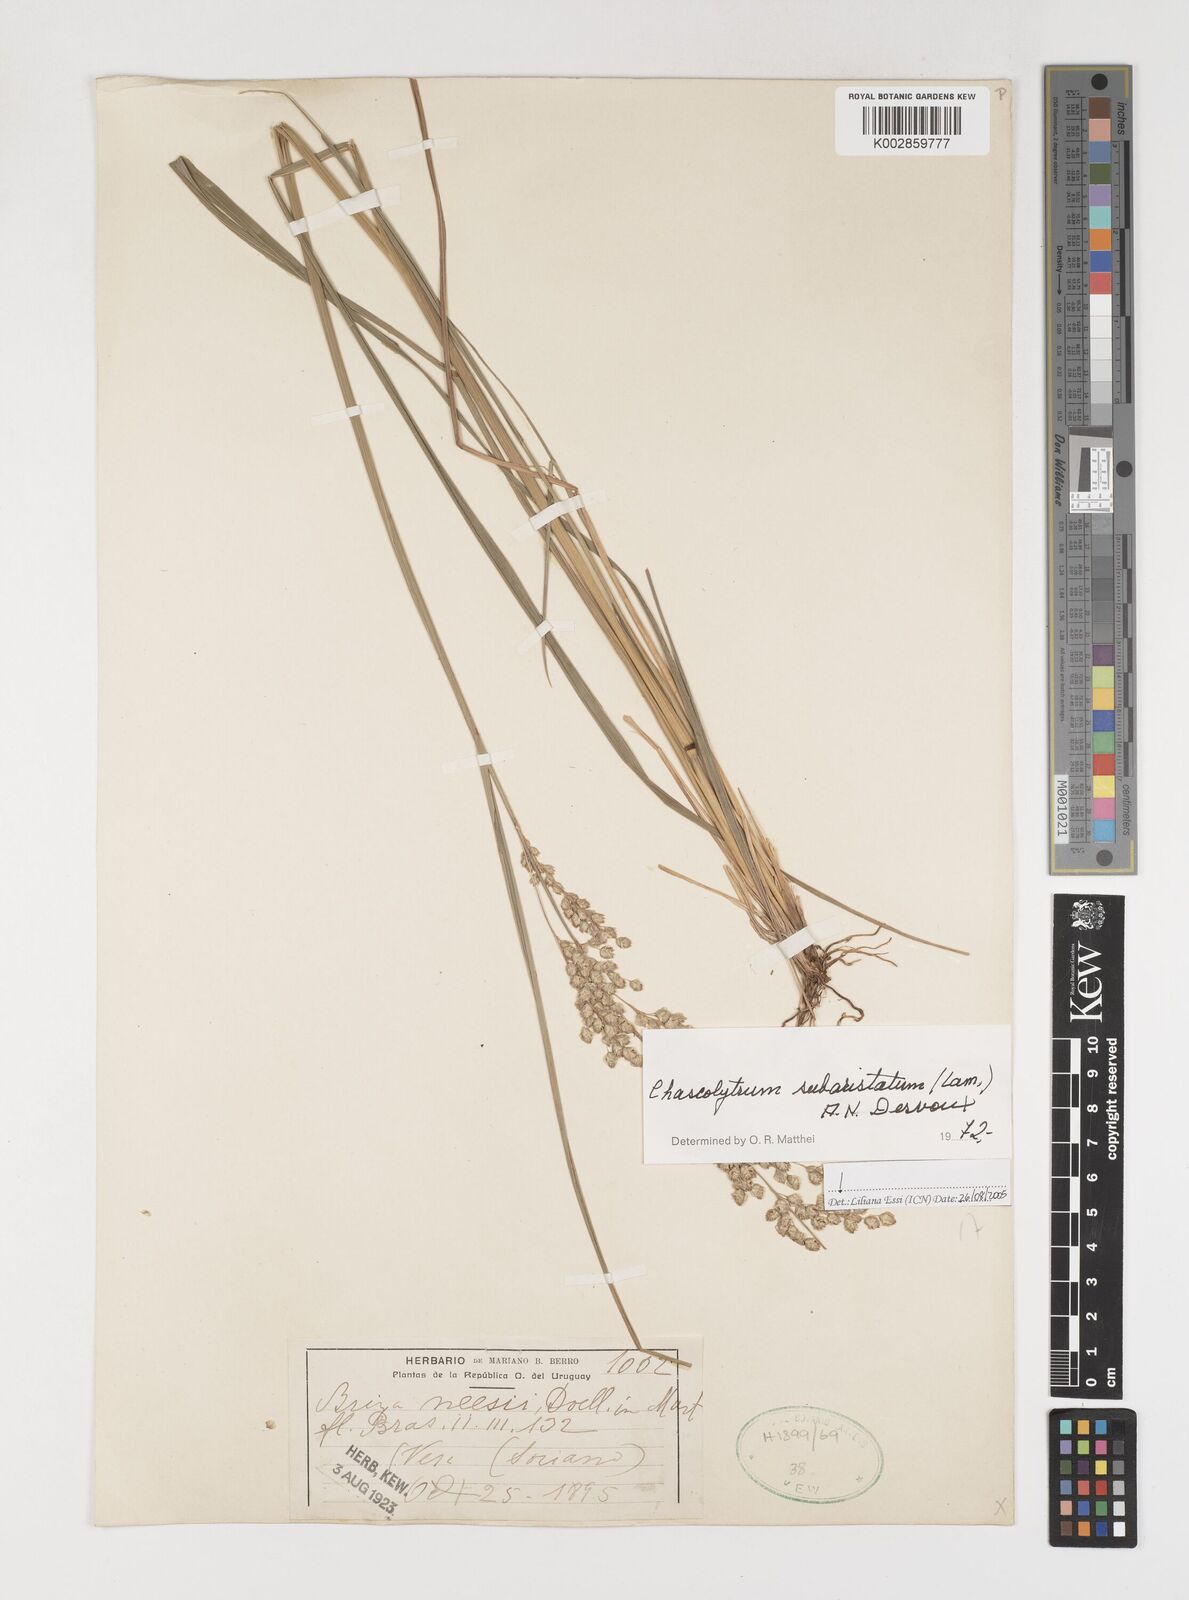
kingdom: Plantae
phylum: Tracheophyta
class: Liliopsida
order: Poales
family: Poaceae
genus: Chascolytrum
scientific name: Chascolytrum subaristatum
